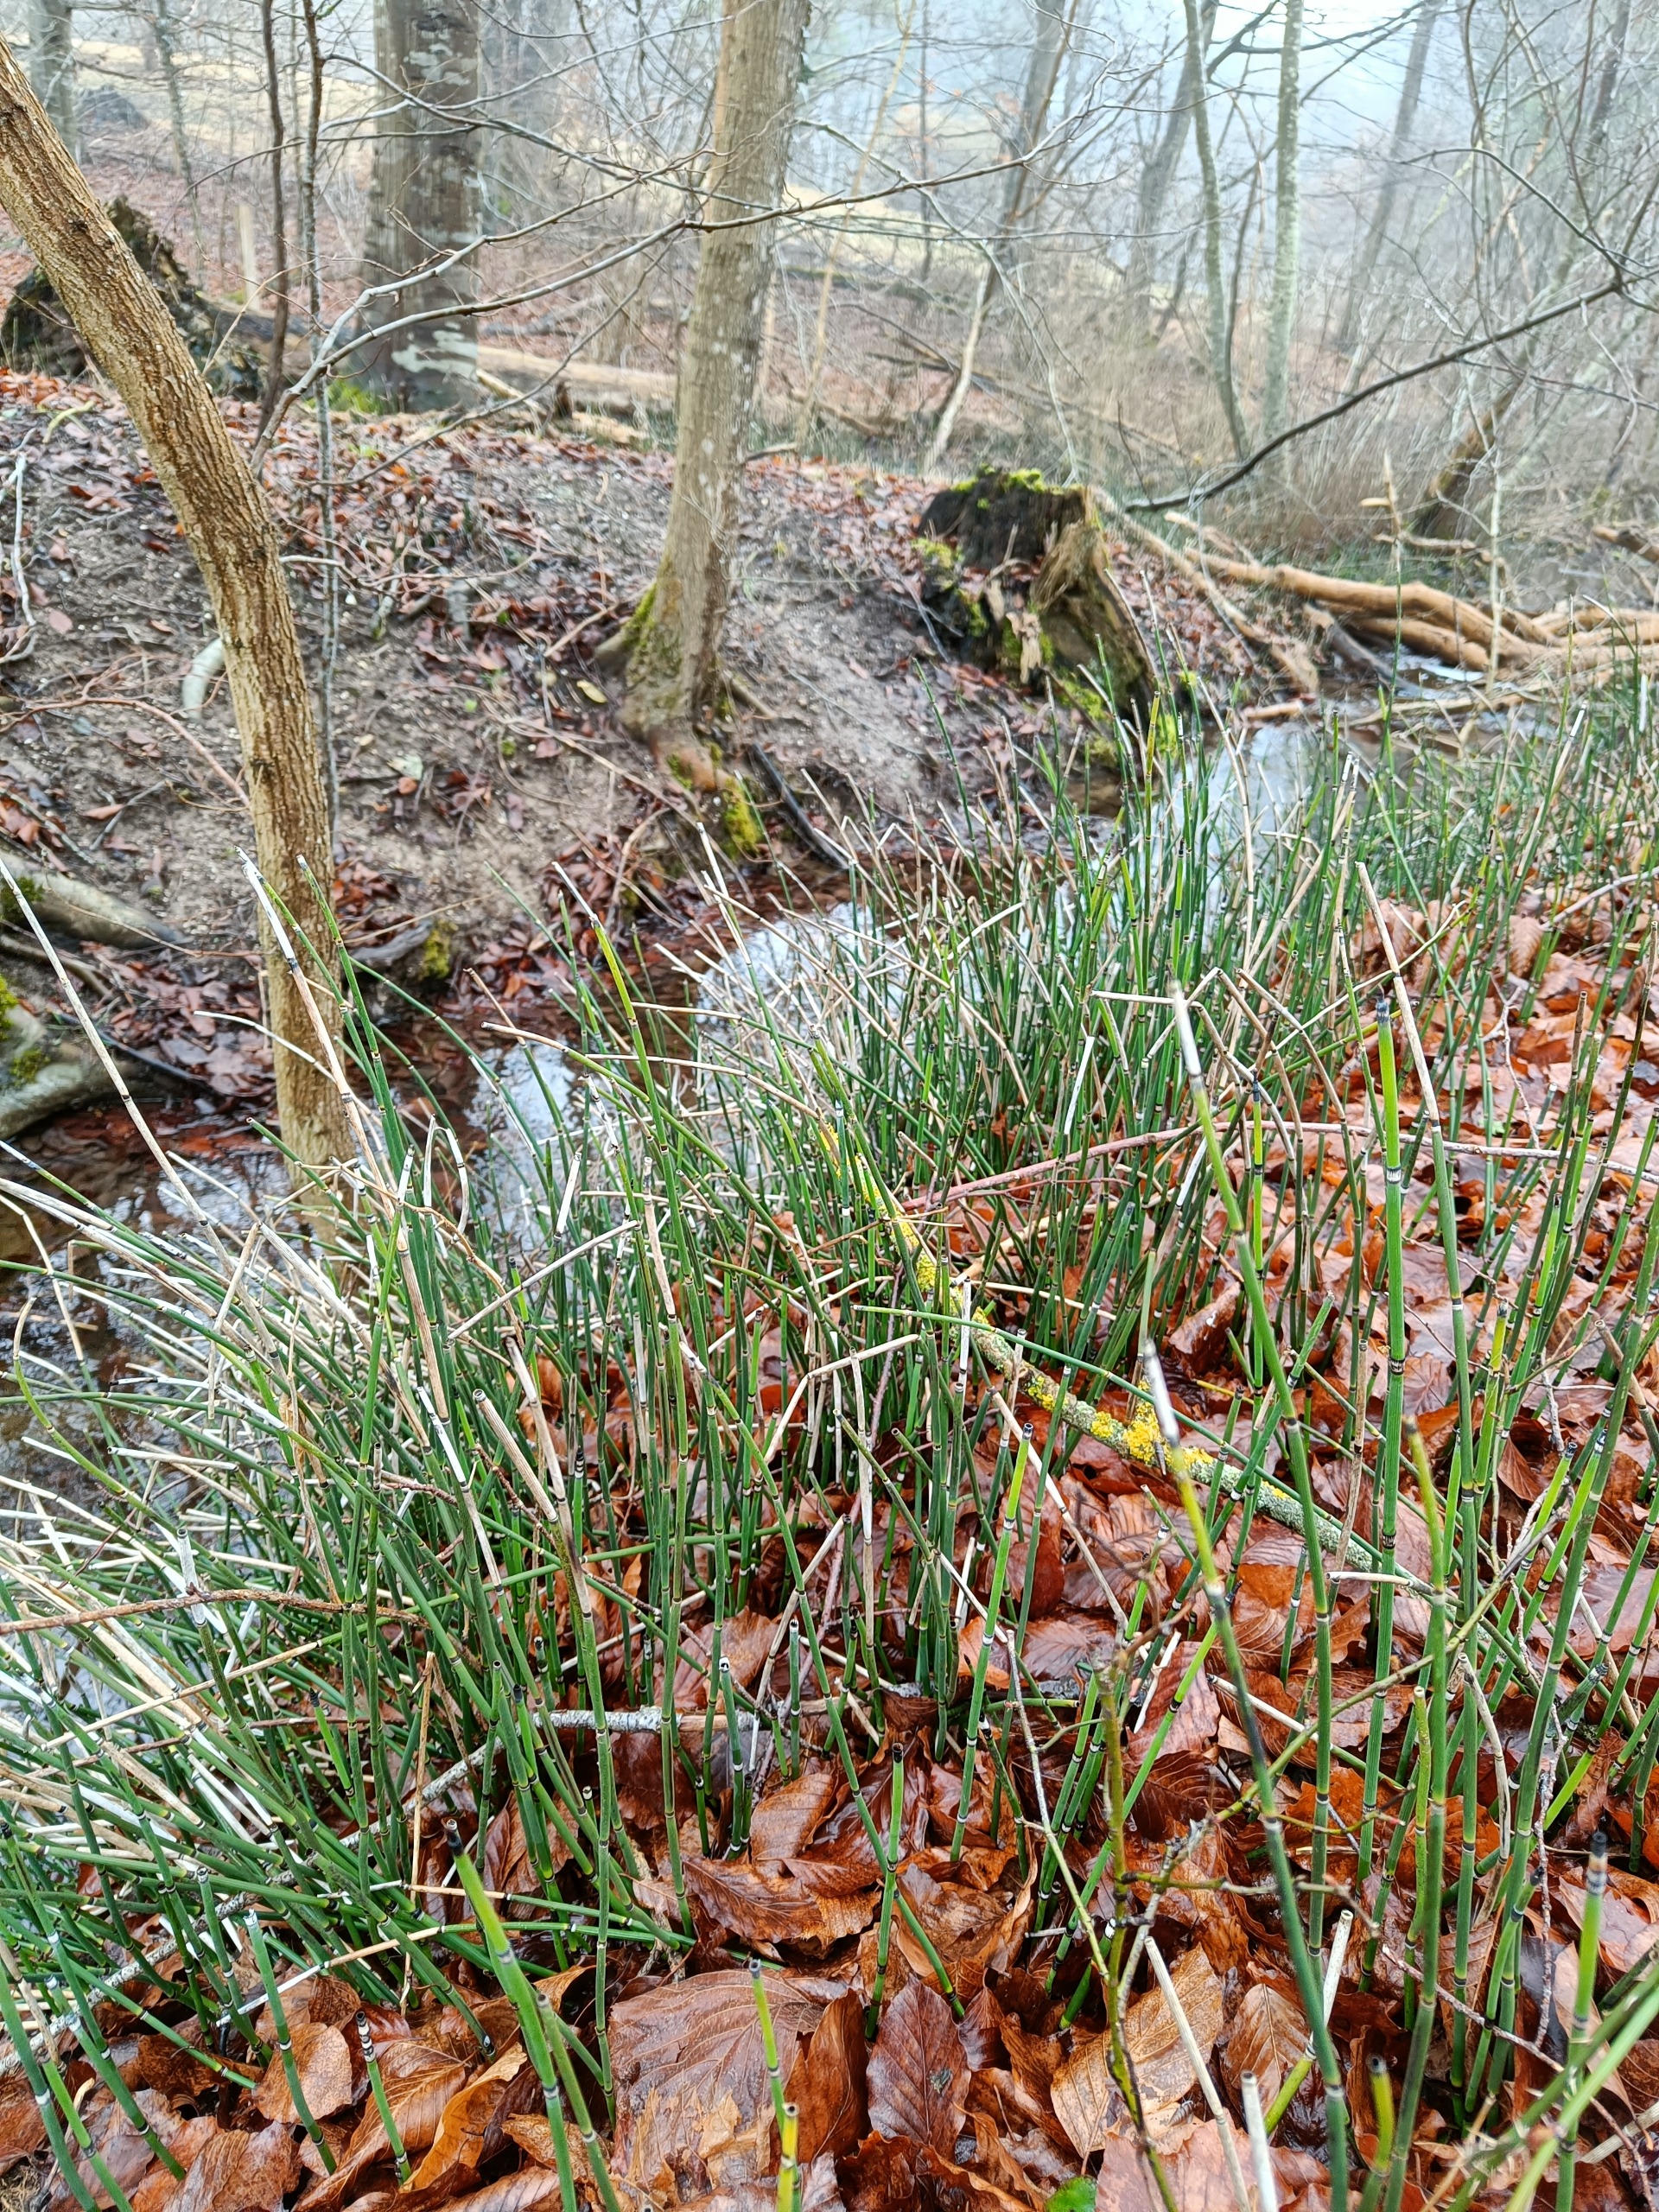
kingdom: Plantae
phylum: Tracheophyta
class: Polypodiopsida
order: Equisetales
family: Equisetaceae
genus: Equisetum
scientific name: Equisetum hyemale
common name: Skavgræs
